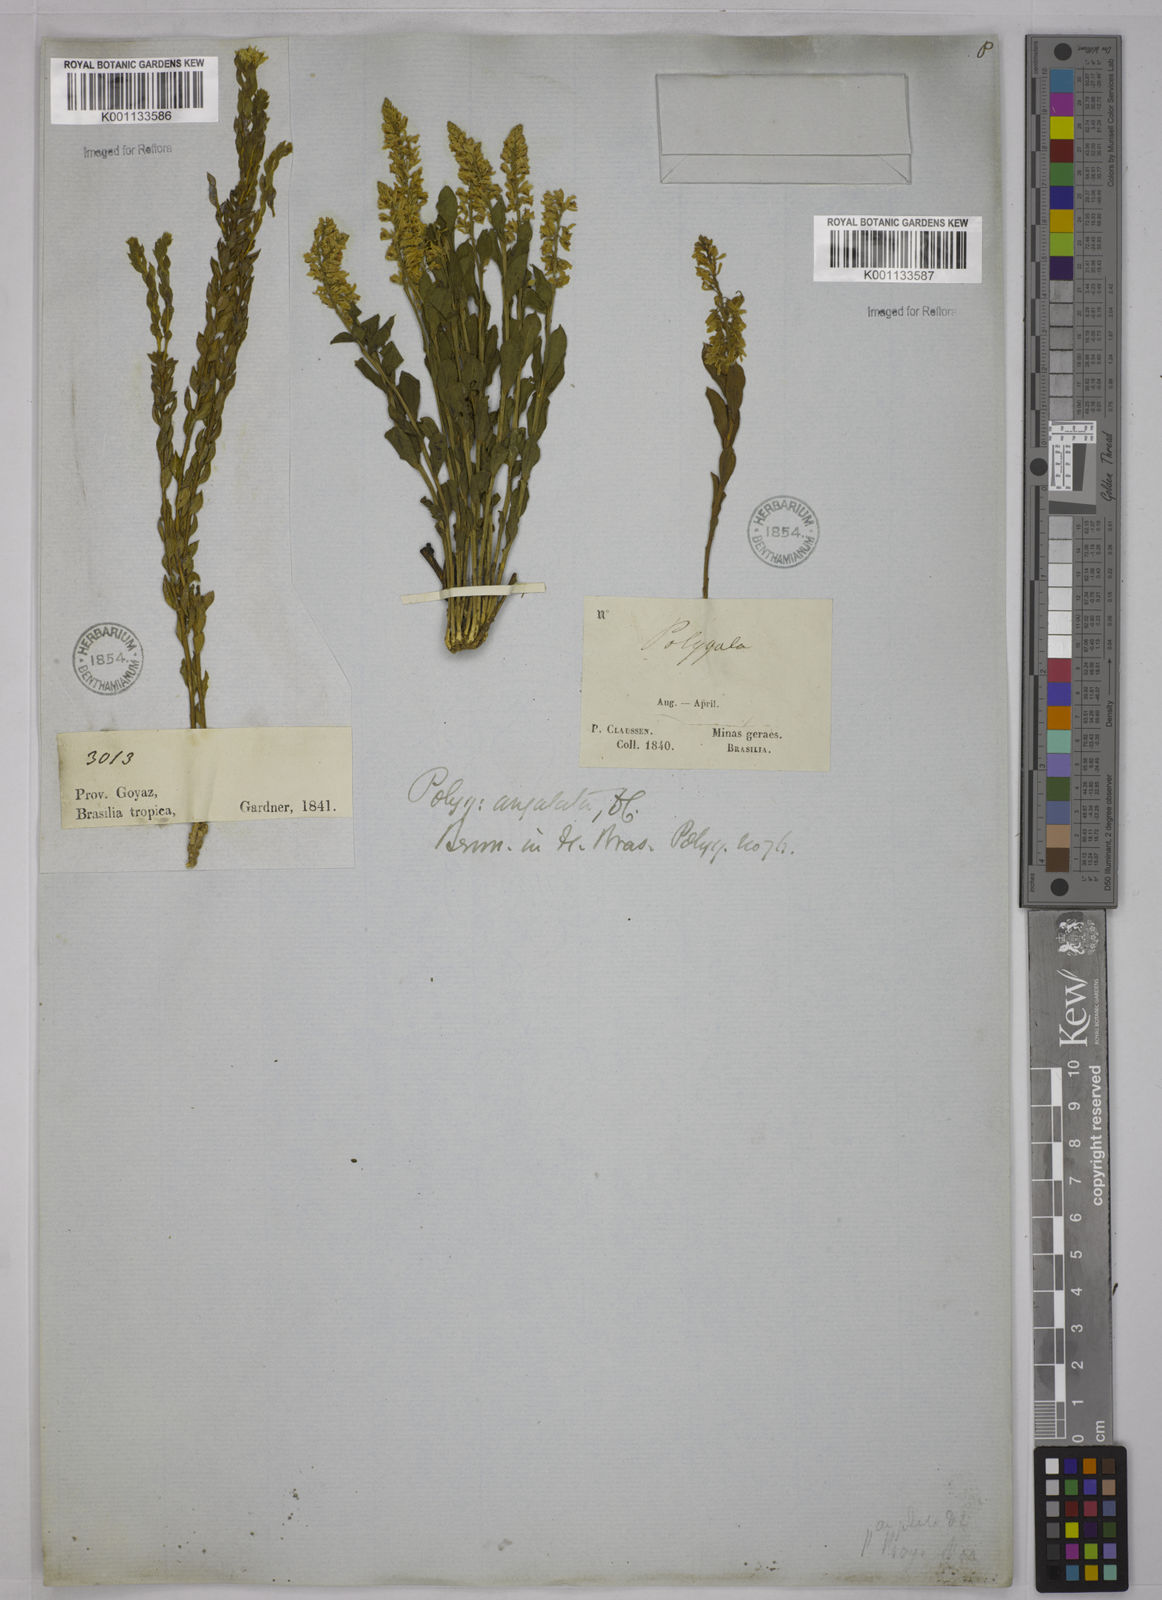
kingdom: Plantae
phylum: Tracheophyta
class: Magnoliopsida
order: Fabales
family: Polygalaceae
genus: Polygala
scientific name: Polygala poaya
